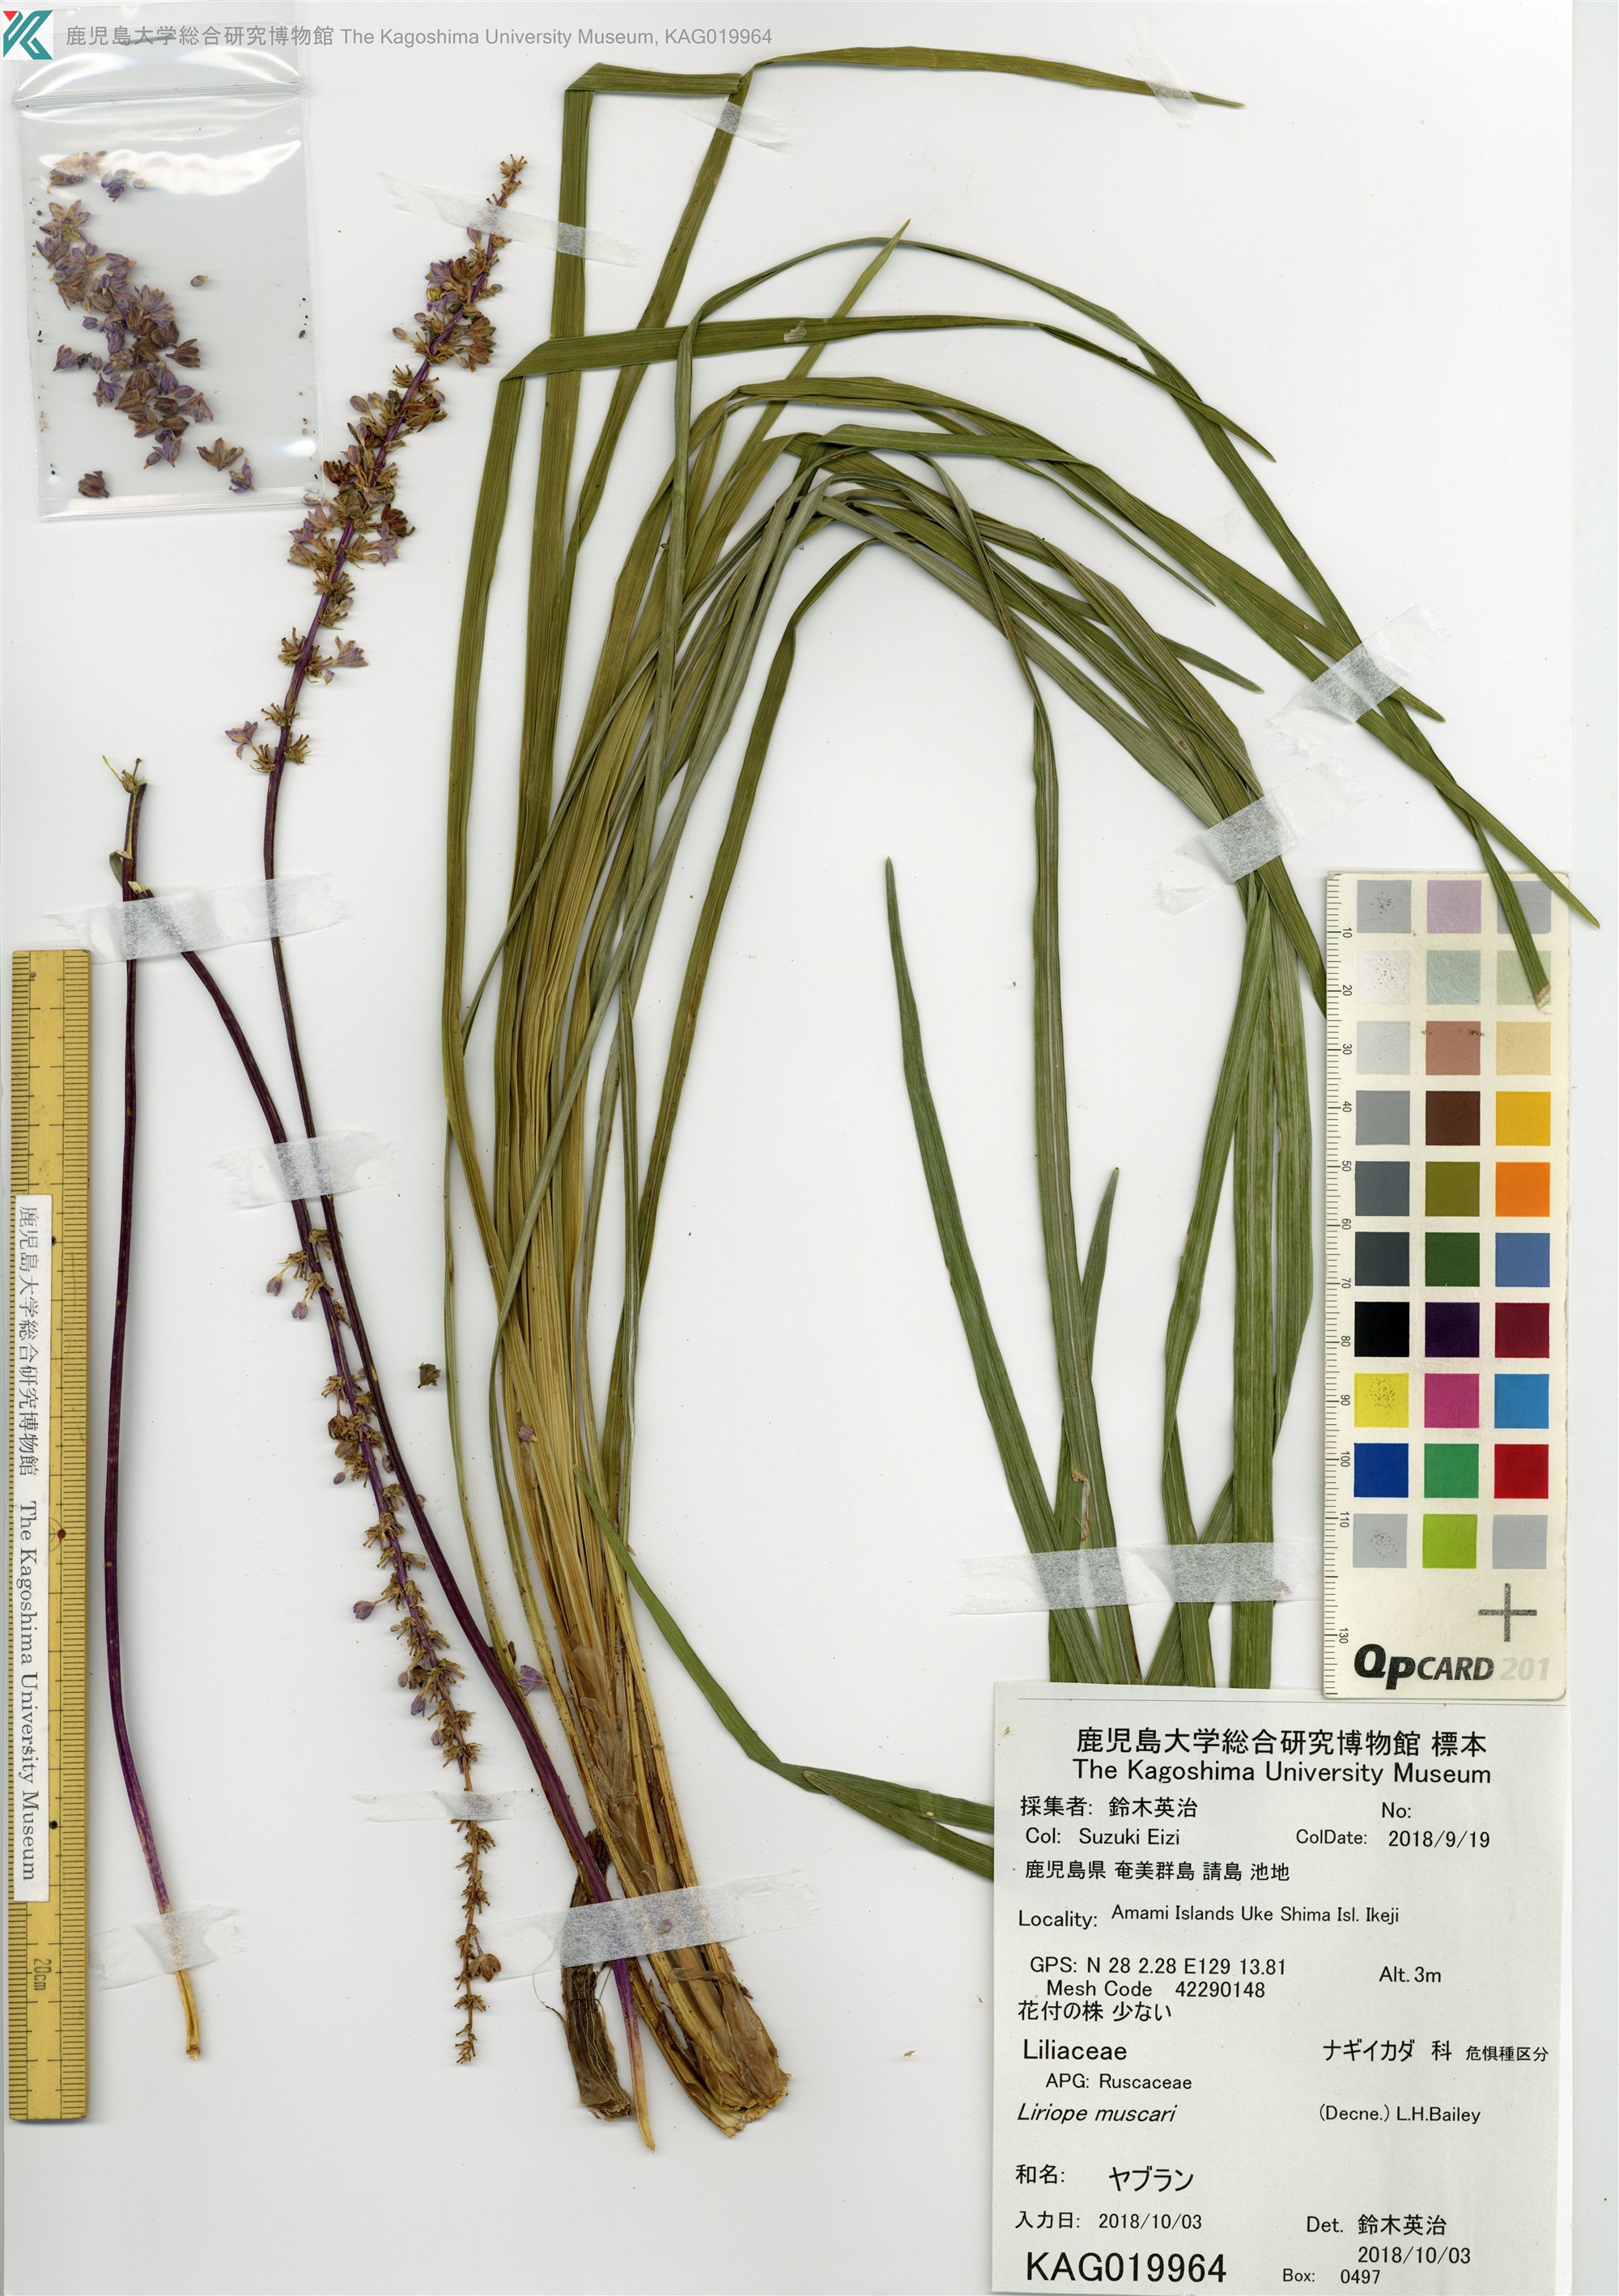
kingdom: Plantae
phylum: Tracheophyta
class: Liliopsida
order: Asparagales
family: Asparagaceae
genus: Liriope
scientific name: Liriope muscari
